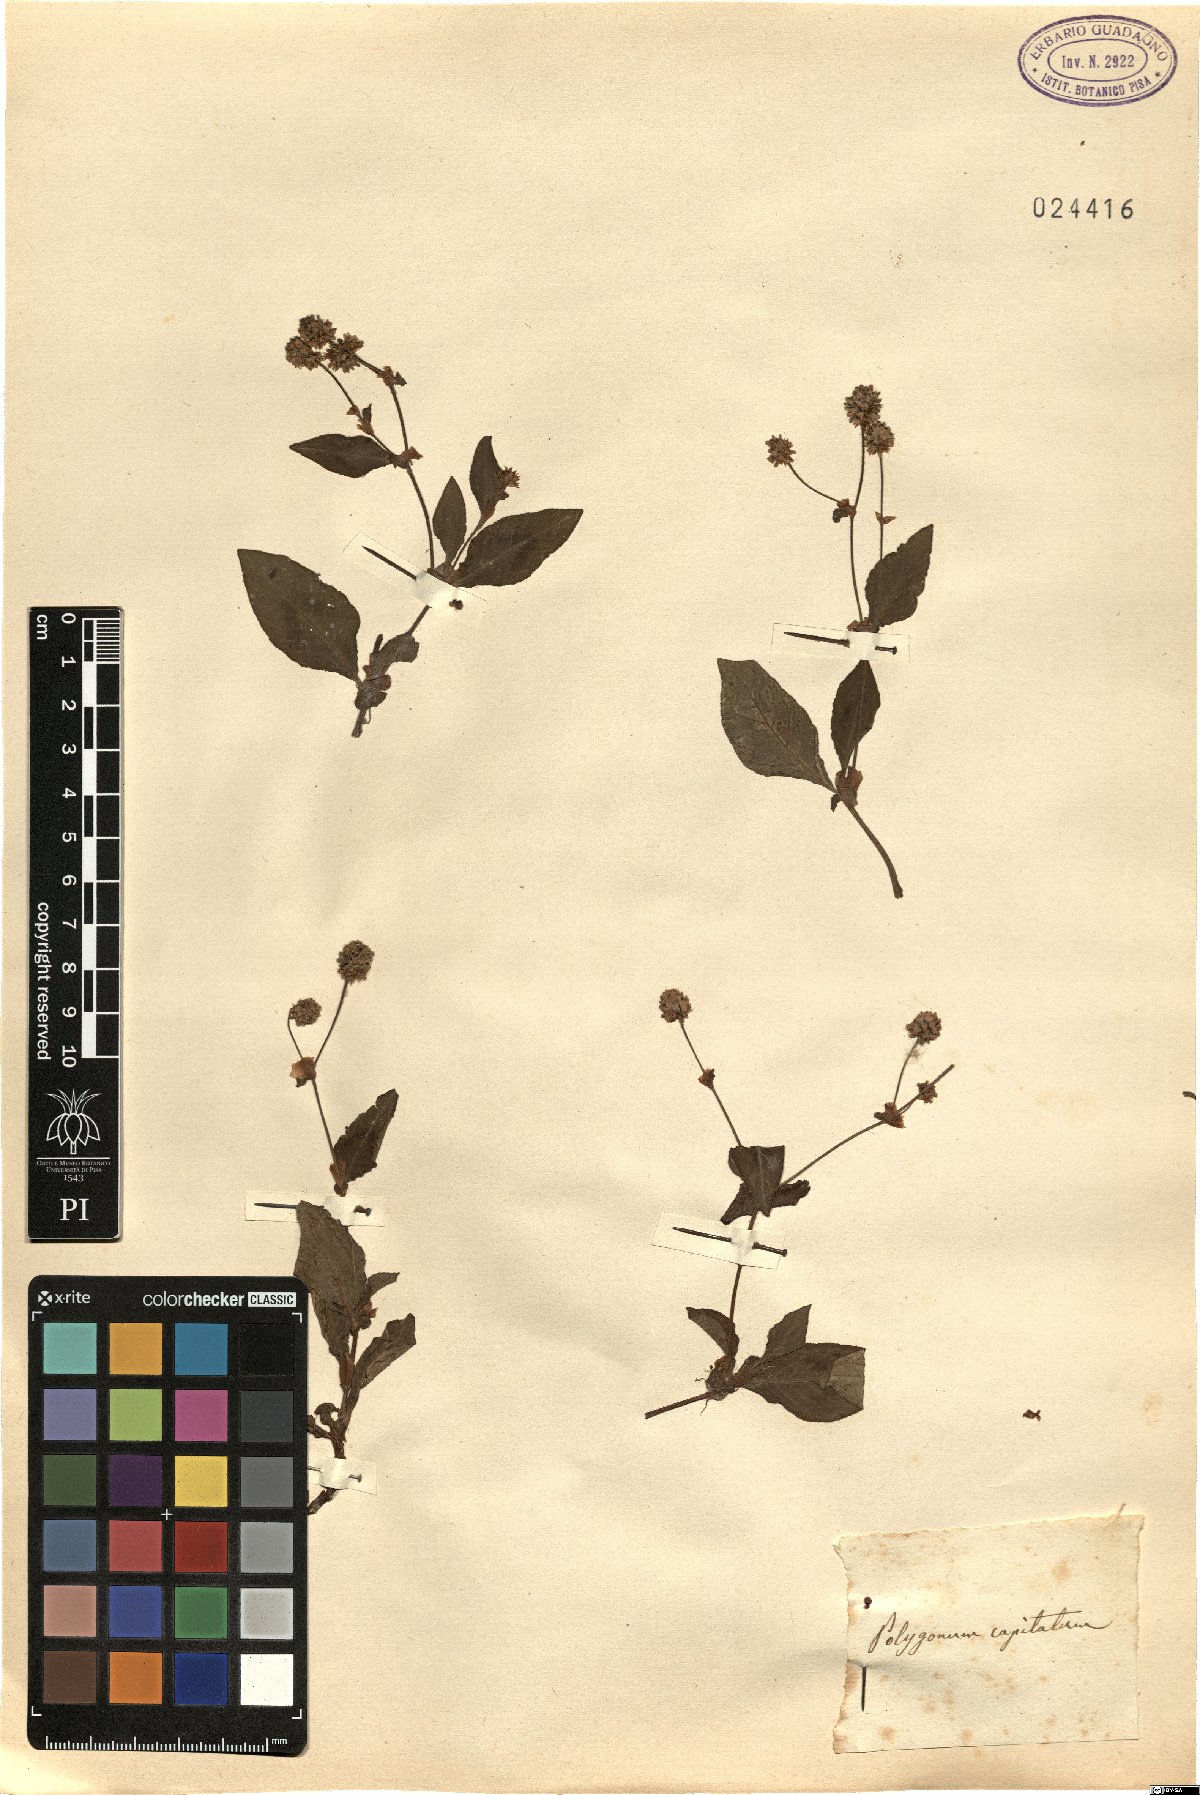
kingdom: Plantae
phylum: Tracheophyta
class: Magnoliopsida
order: Caryophyllales
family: Polygonaceae
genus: Persicaria
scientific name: Persicaria capitata
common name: Pinkhead smartweed
